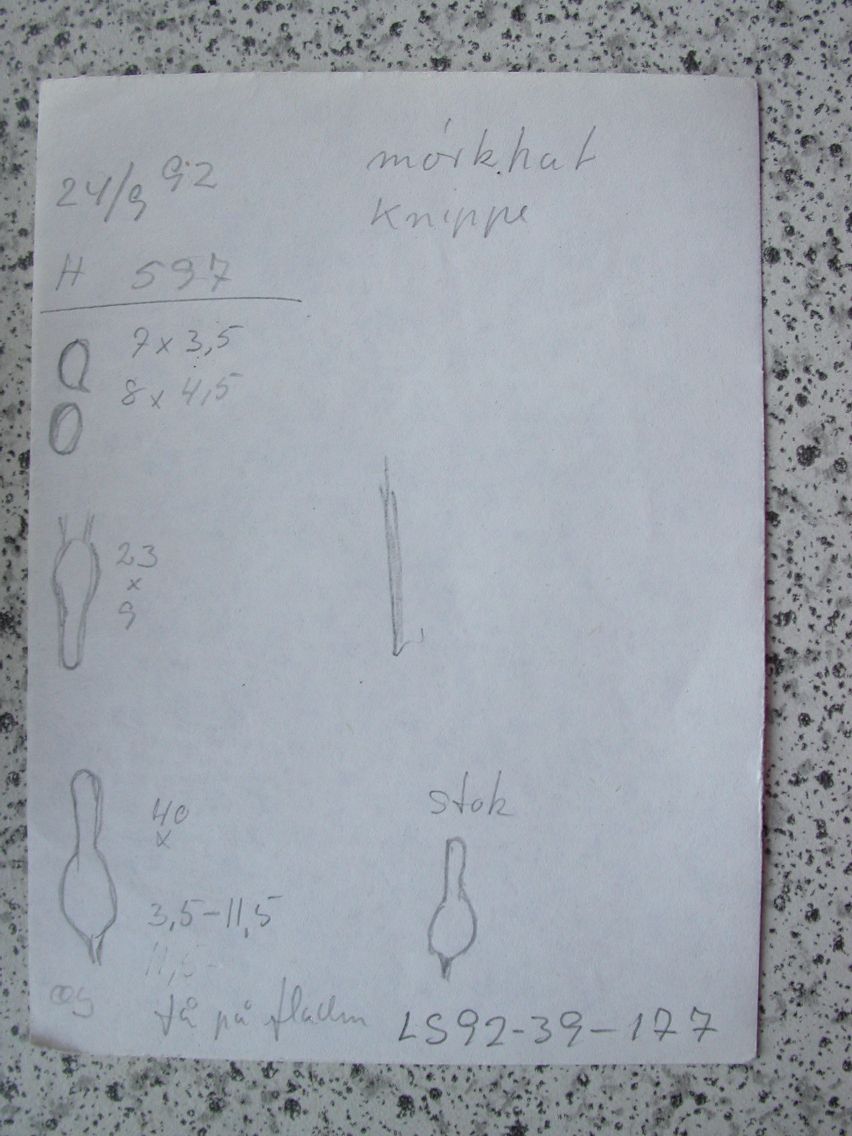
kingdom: Fungi
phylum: Basidiomycota
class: Agaricomycetes
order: Agaricales
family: Psathyrellaceae
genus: Britzelmayria
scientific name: Britzelmayria multipedata
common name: knippe-mørkhat
